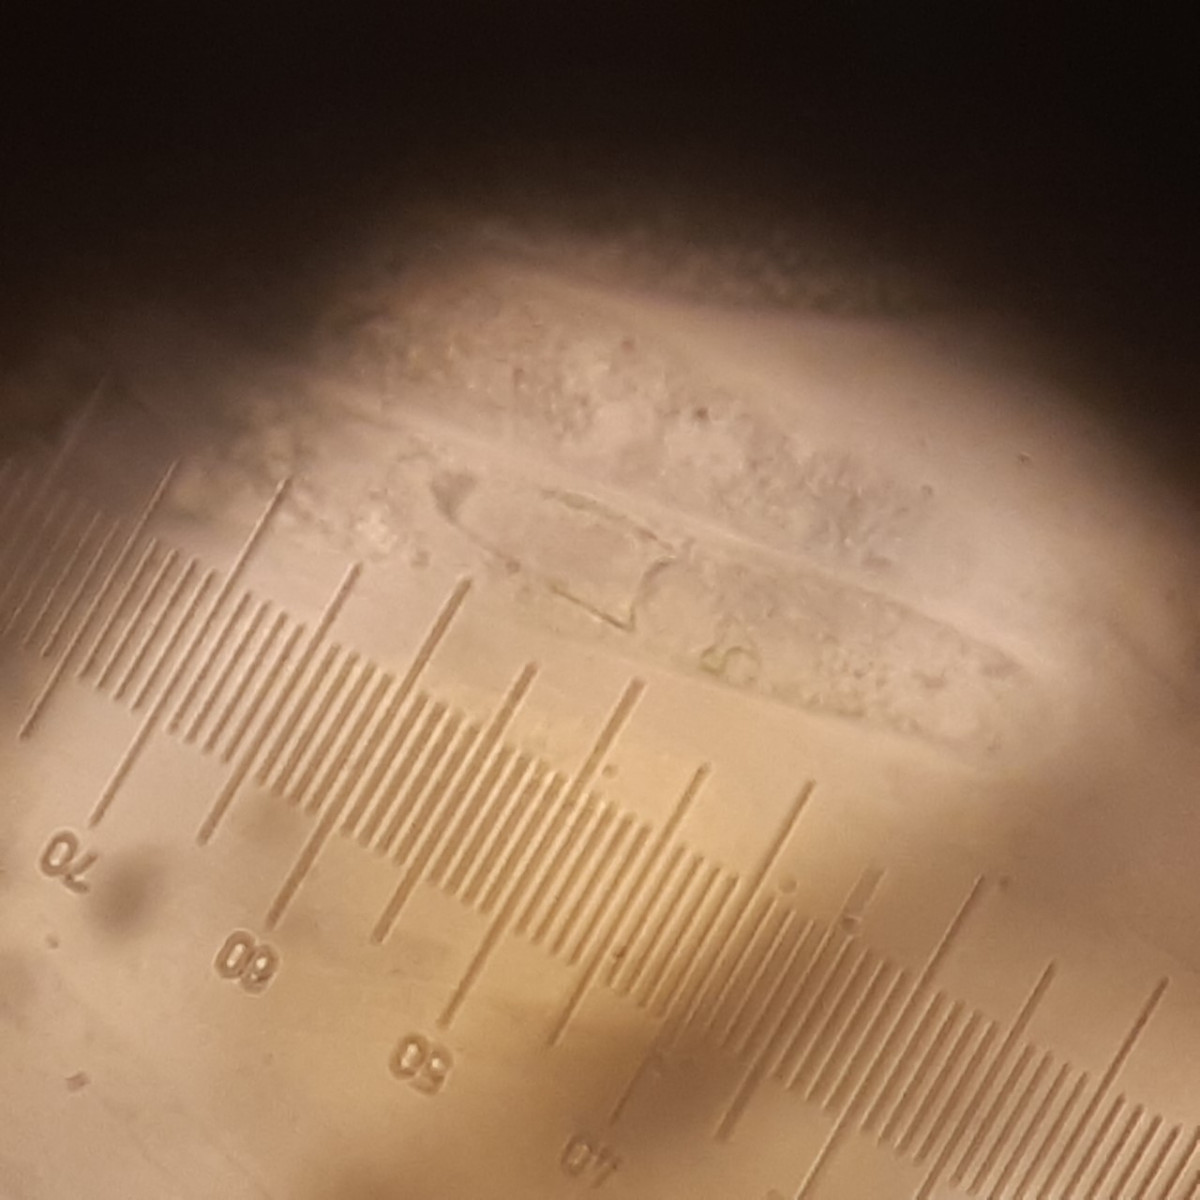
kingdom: Fungi
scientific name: Fungi
